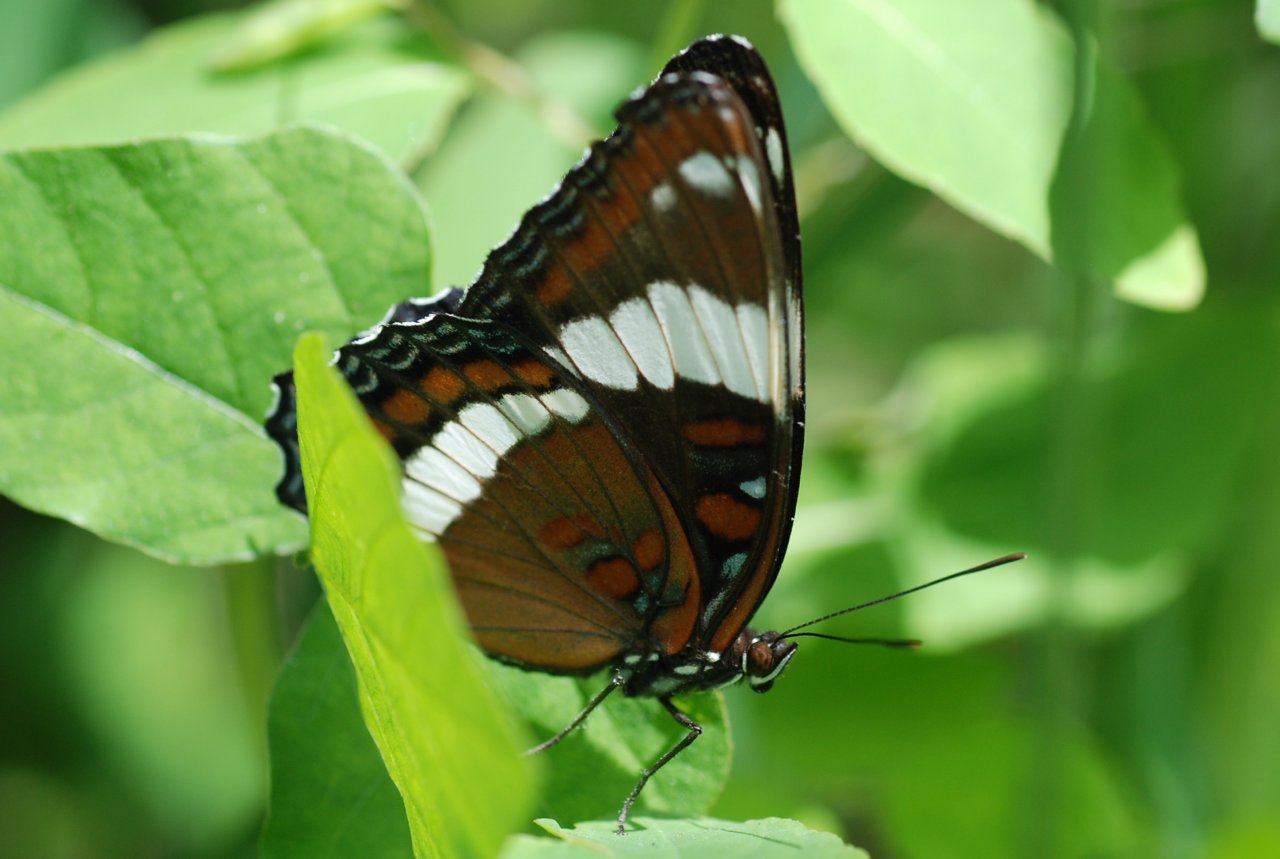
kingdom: Animalia
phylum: Arthropoda
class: Insecta
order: Lepidoptera
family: Nymphalidae
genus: Limenitis
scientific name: Limenitis arthemis
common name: Red-spotted Admiral
